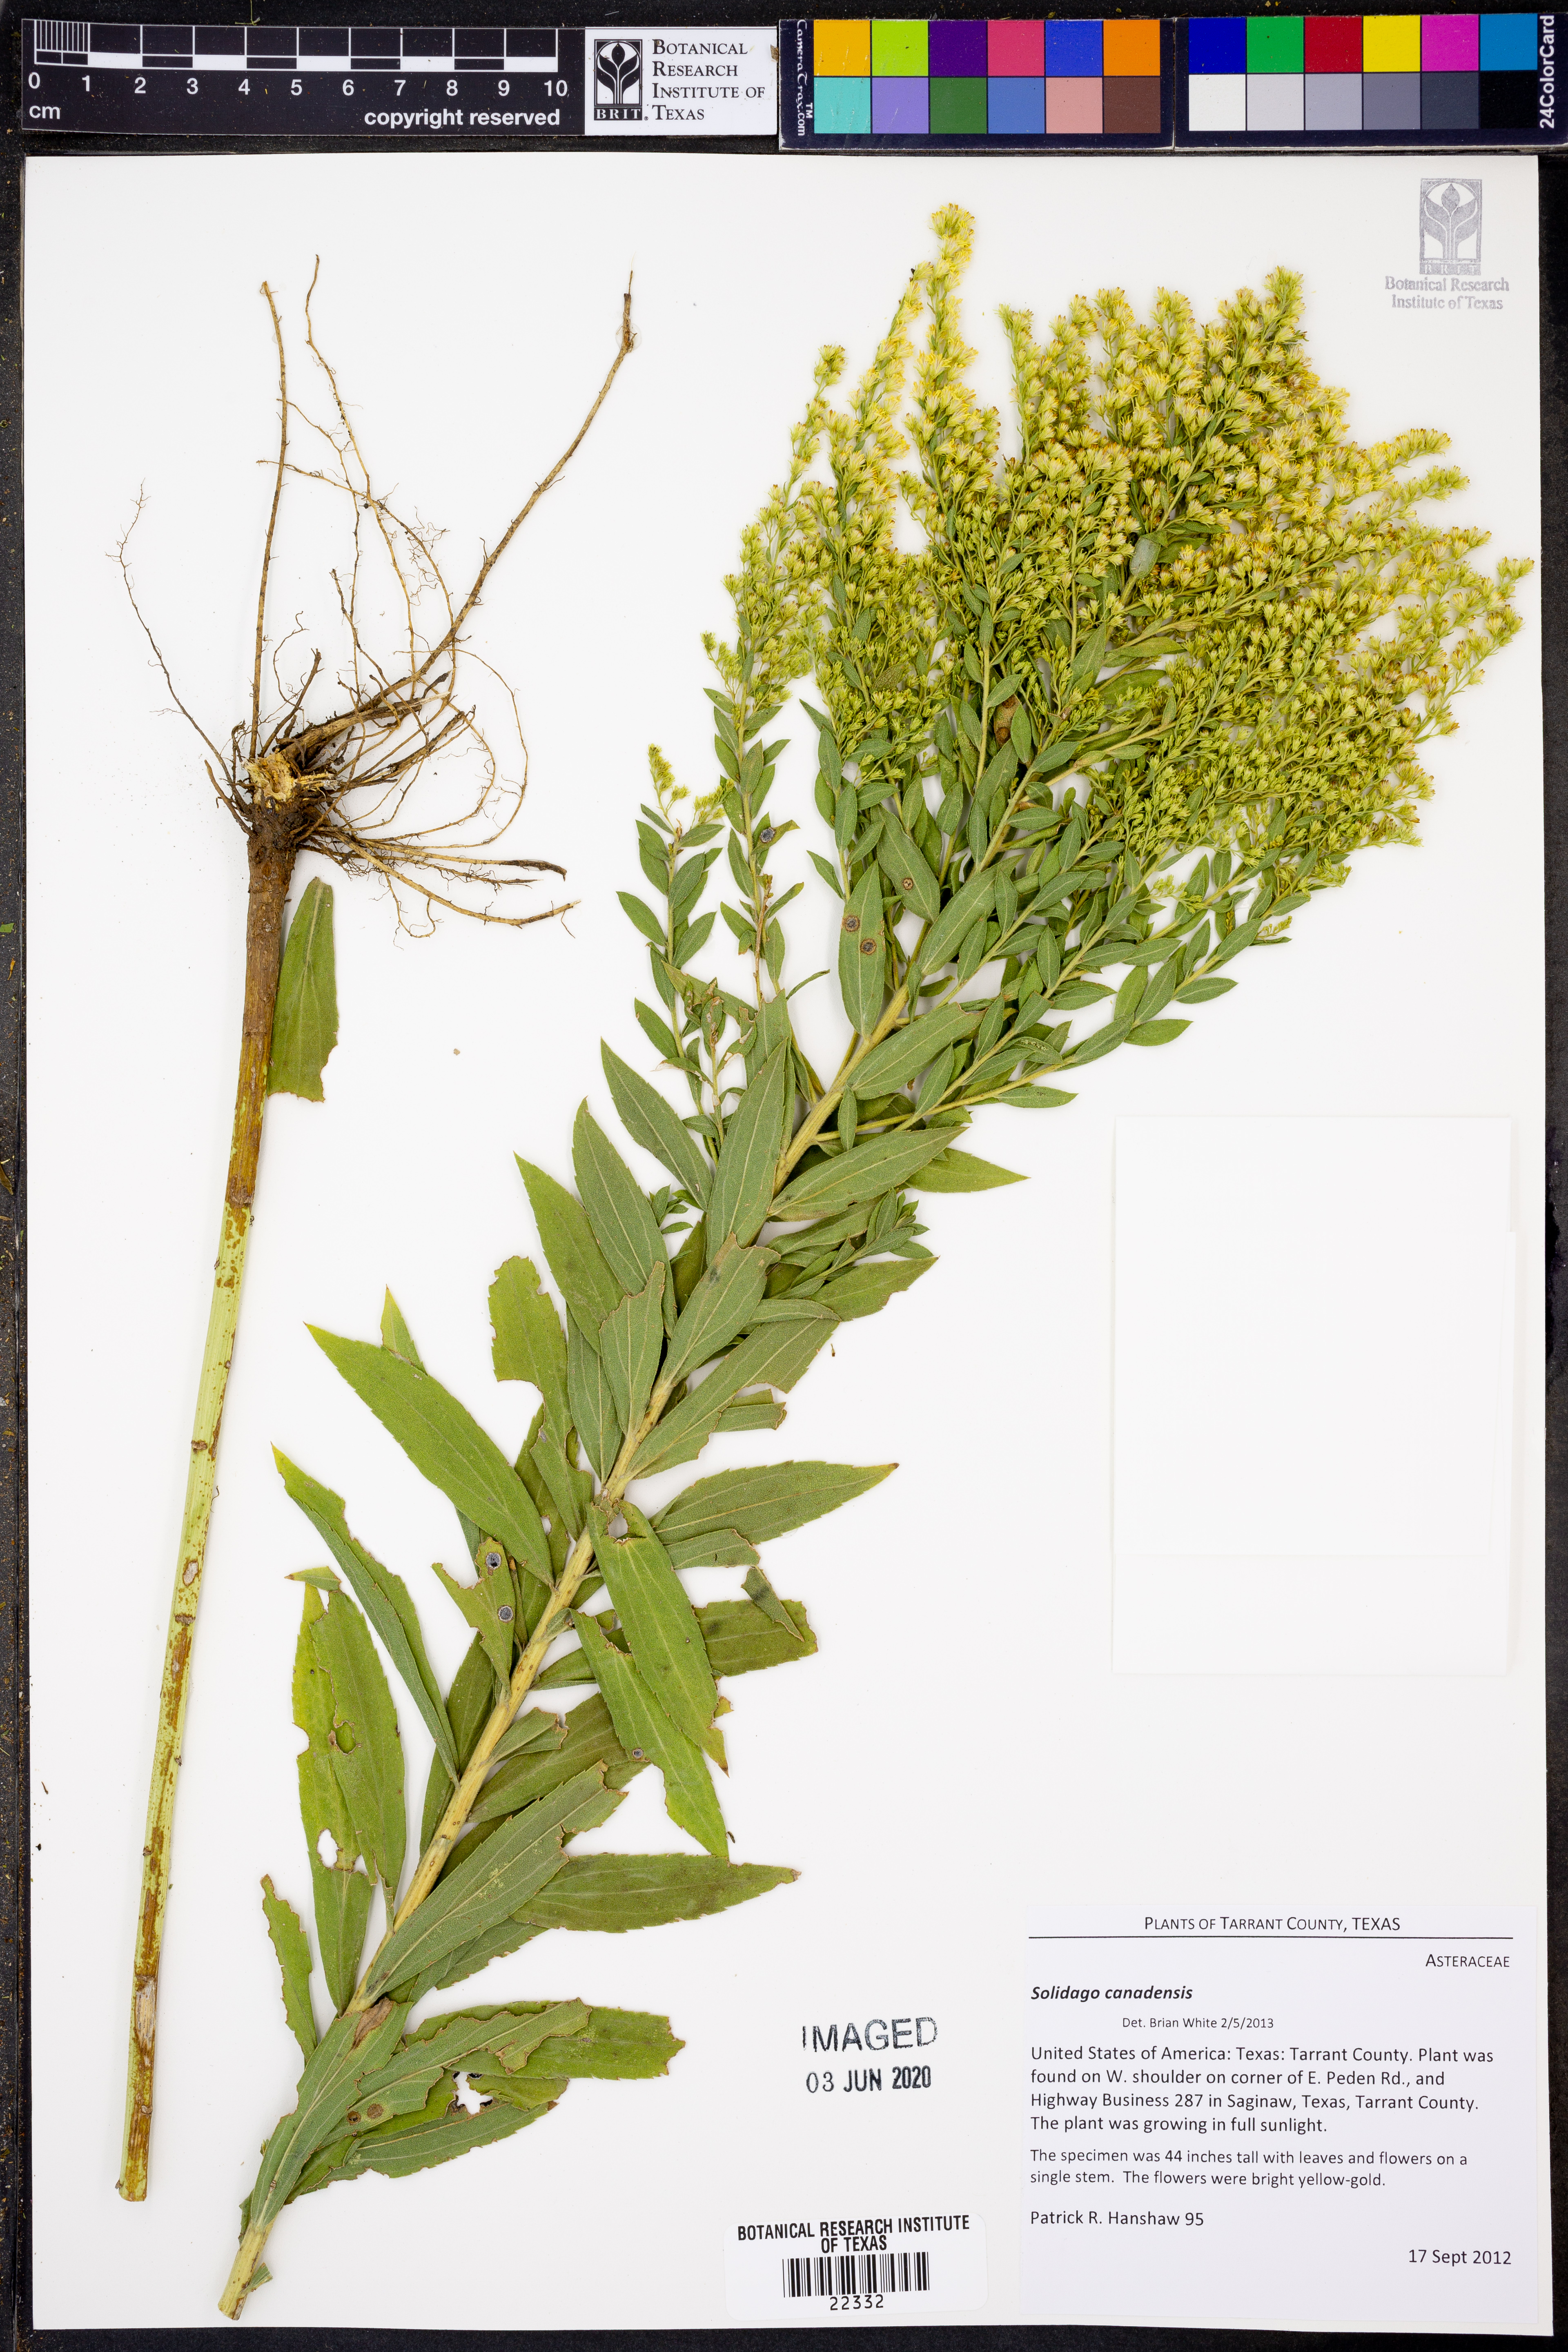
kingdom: Plantae
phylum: Tracheophyta
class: Magnoliopsida
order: Asterales
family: Asteraceae
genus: Solidago
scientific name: Solidago canadensis
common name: Canada goldenrod
